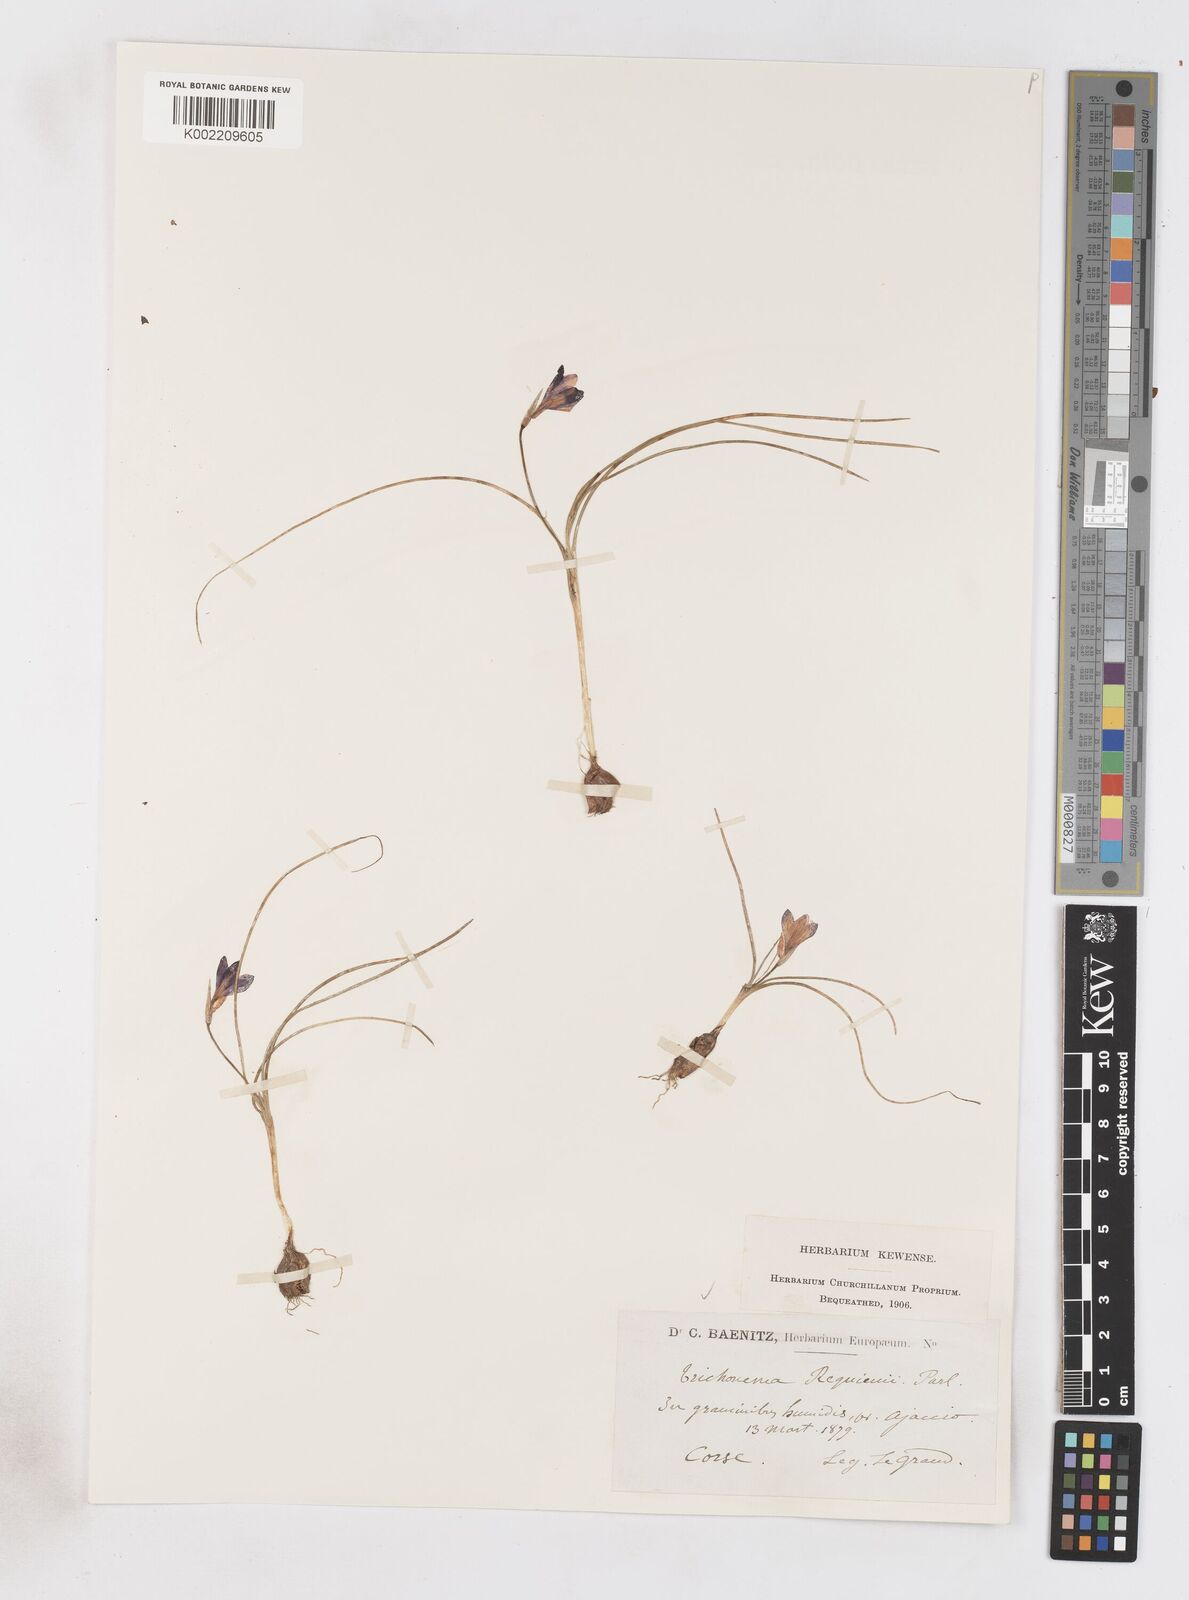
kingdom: Plantae
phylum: Tracheophyta
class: Liliopsida
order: Asparagales
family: Iridaceae
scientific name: Iridaceae
